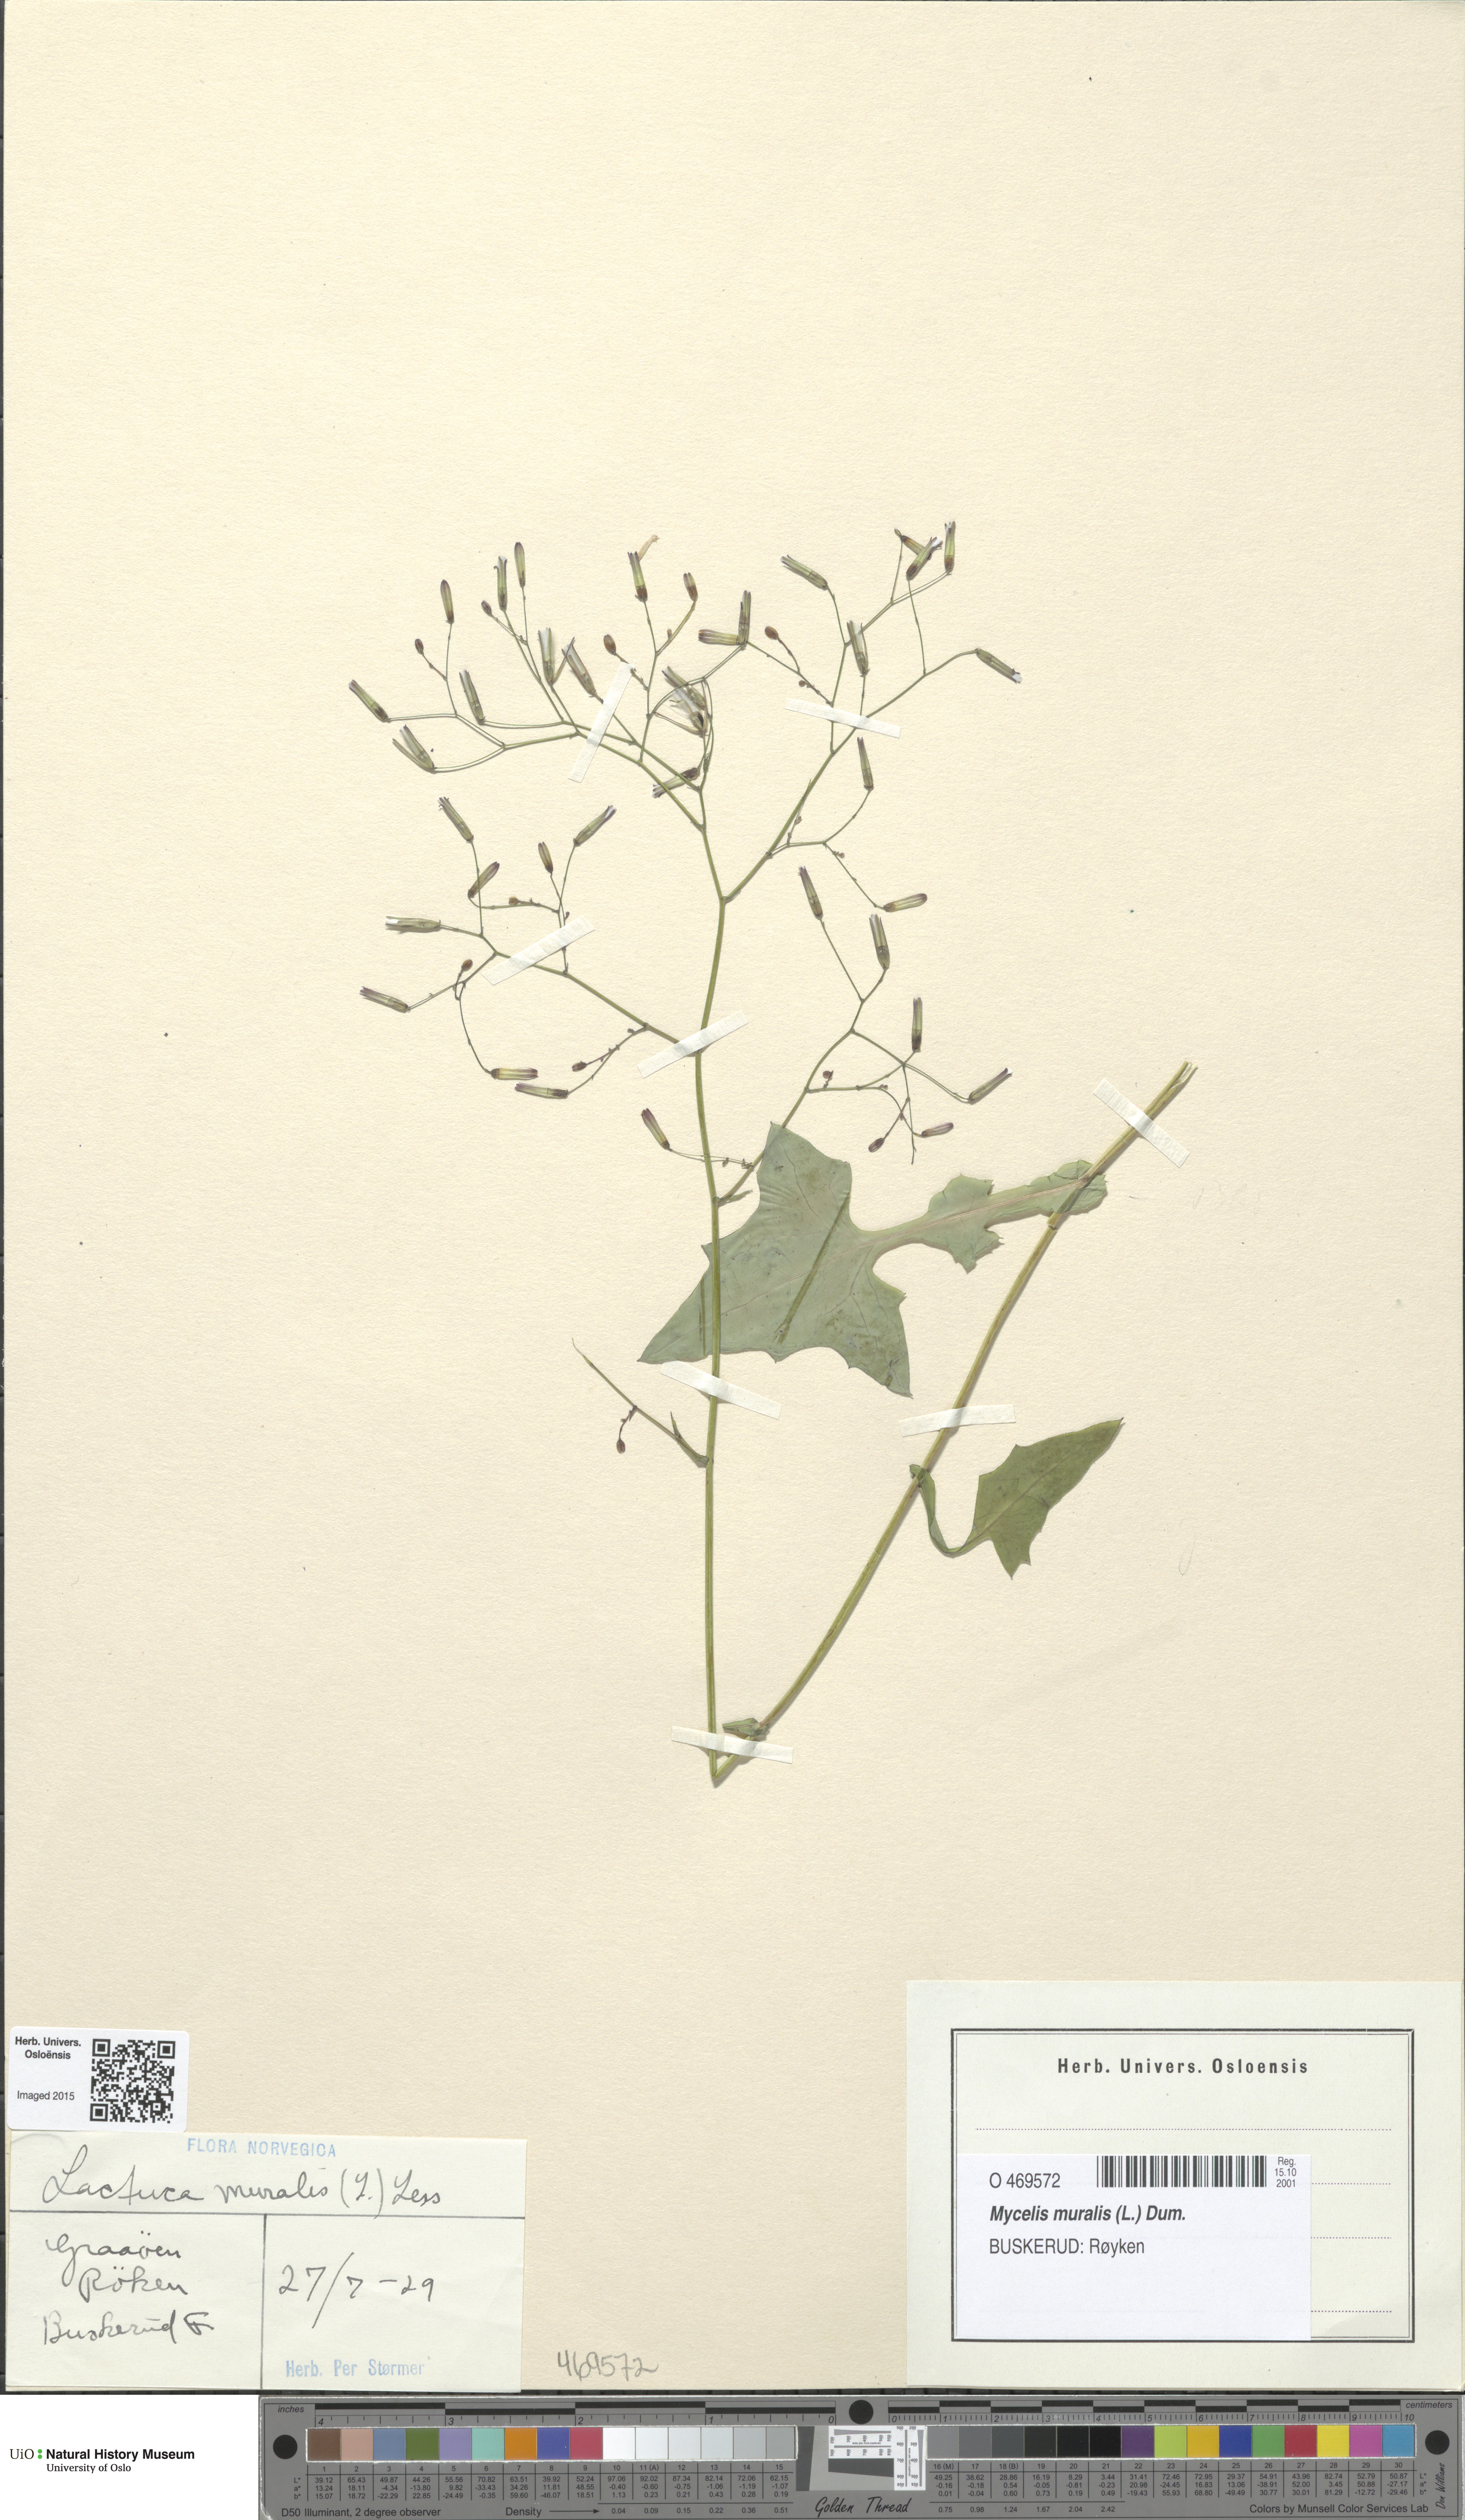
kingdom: Plantae
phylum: Tracheophyta
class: Magnoliopsida
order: Asterales
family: Asteraceae
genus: Mycelis
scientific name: Mycelis muralis
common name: Wall lettuce
